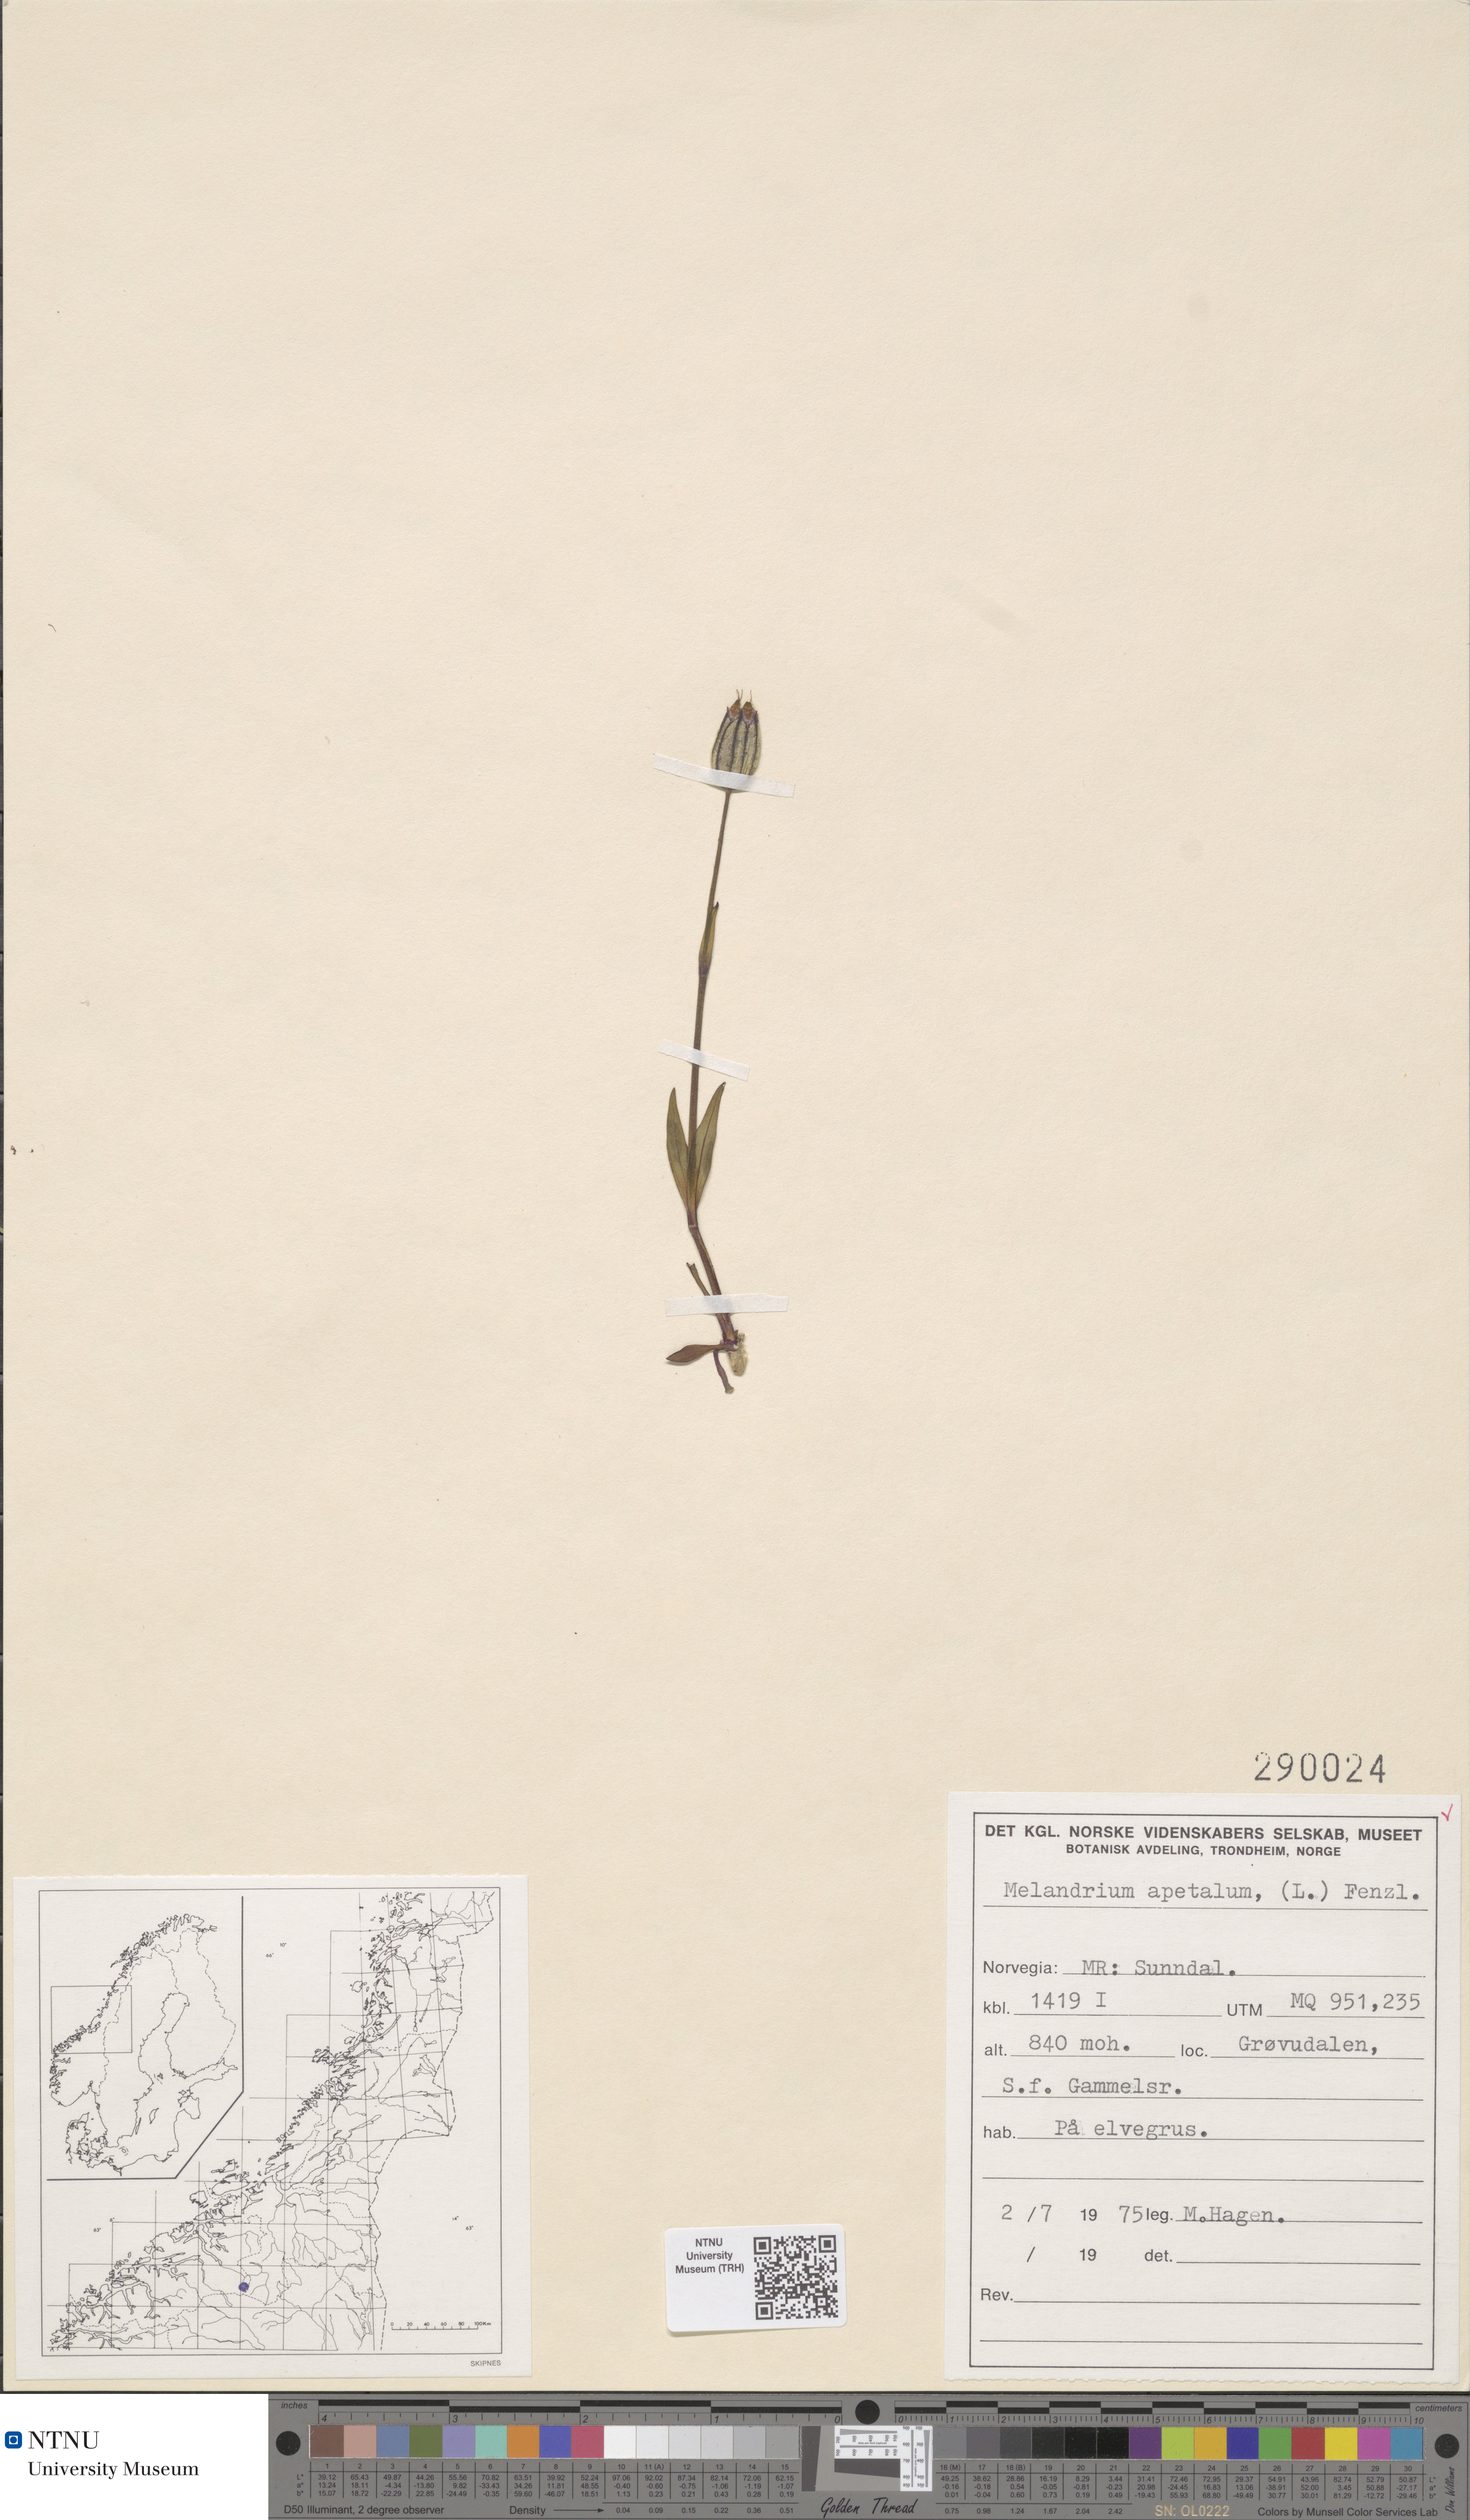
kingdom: Plantae
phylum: Tracheophyta
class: Magnoliopsida
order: Caryophyllales
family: Caryophyllaceae
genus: Silene
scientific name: Silene wahlbergella
